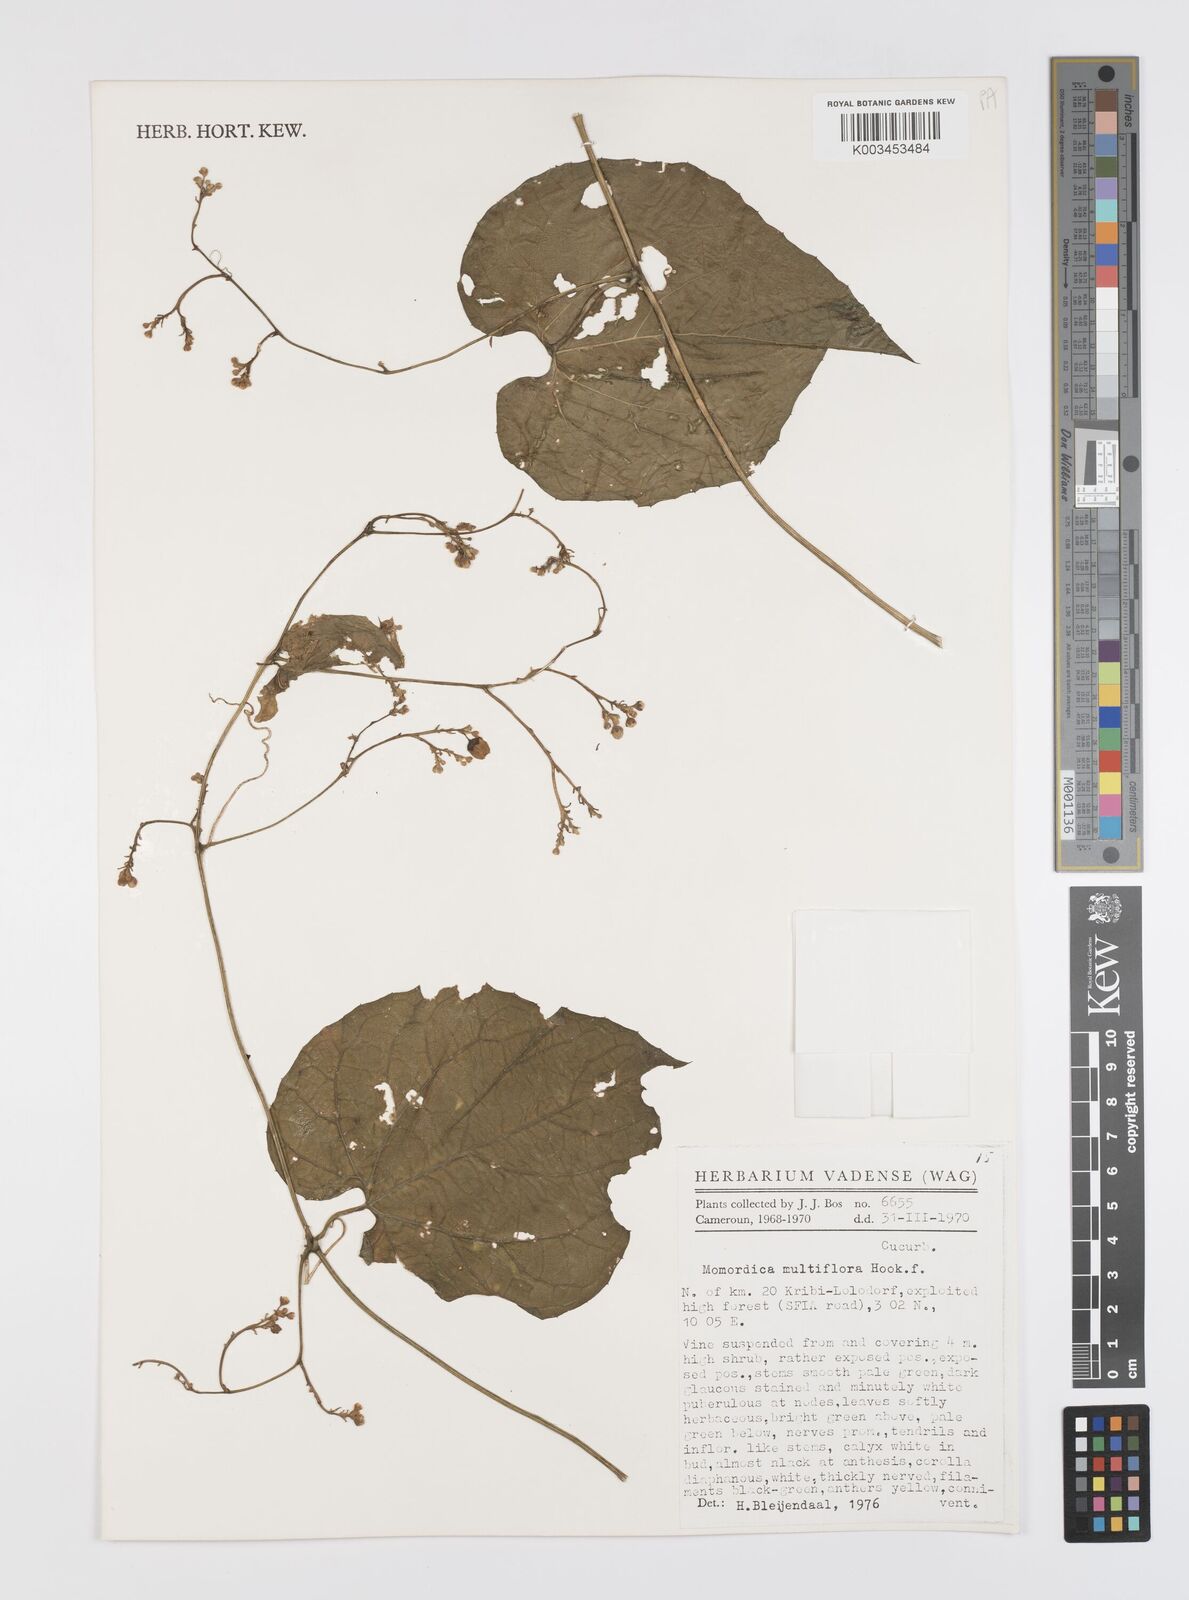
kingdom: Plantae
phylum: Tracheophyta
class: Magnoliopsida
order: Cucurbitales
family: Cucurbitaceae
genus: Momordica
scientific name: Momordica multiflora
